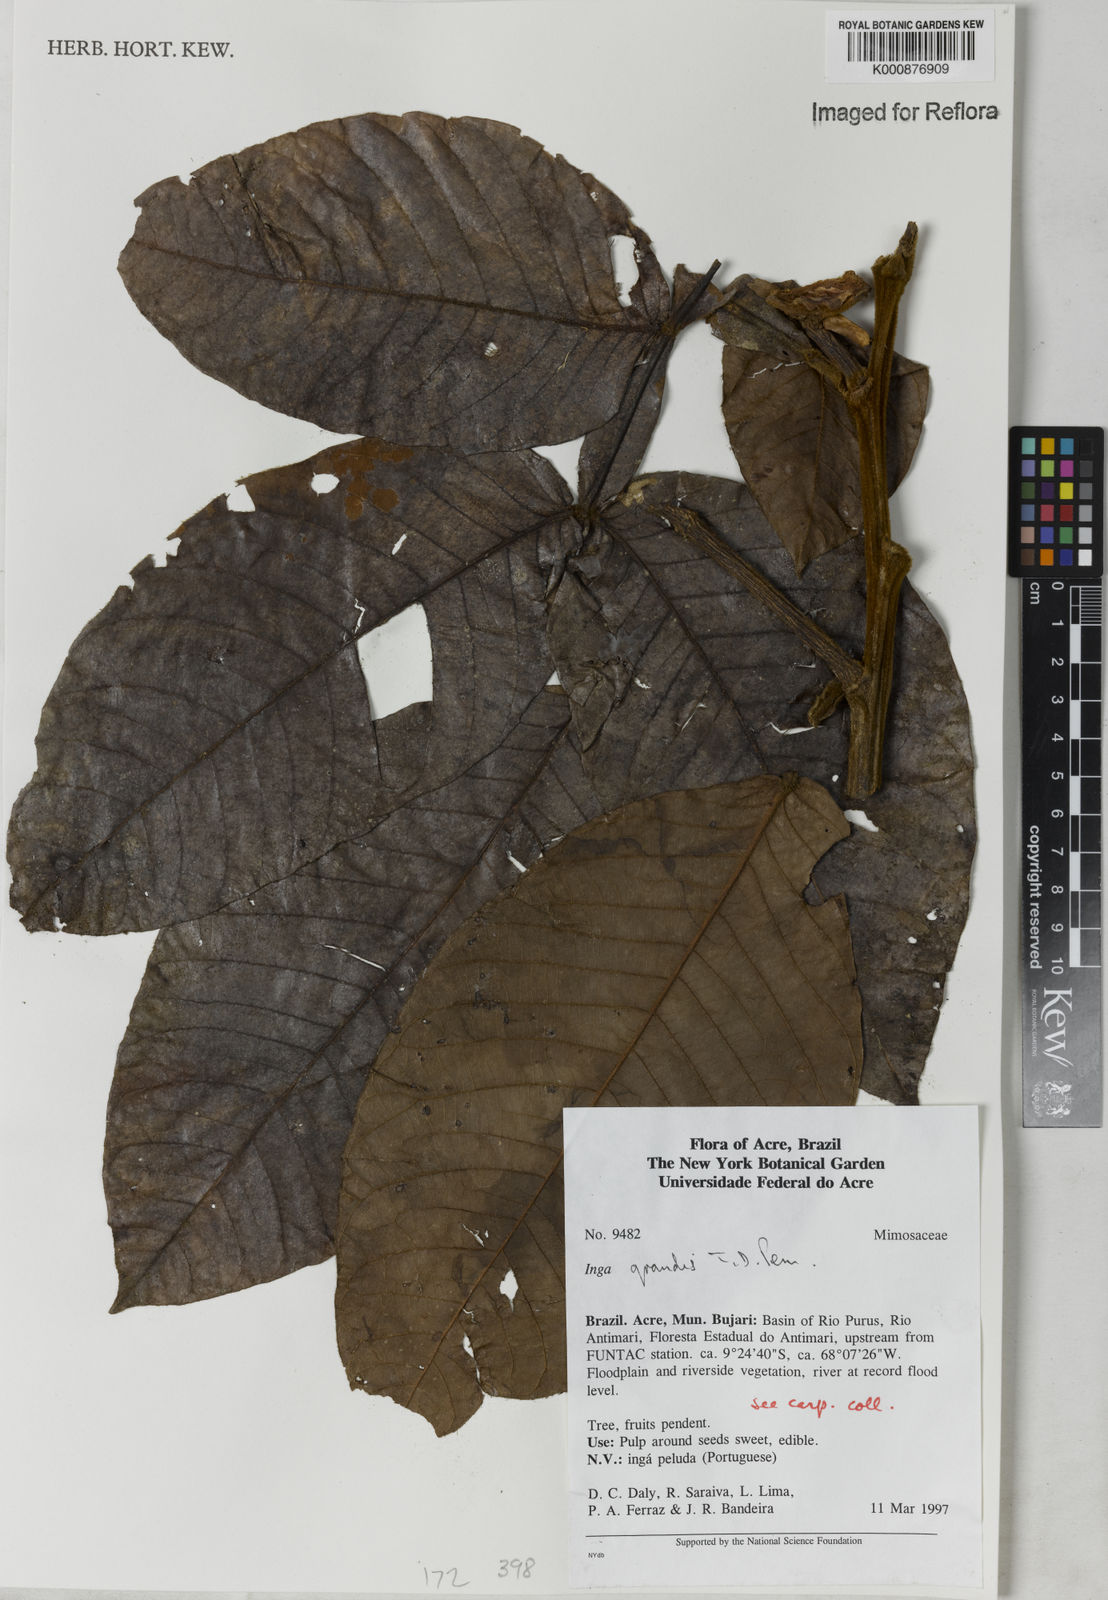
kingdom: Plantae
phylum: Tracheophyta
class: Magnoliopsida
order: Fabales
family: Fabaceae
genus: Inga
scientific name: Inga grandis
